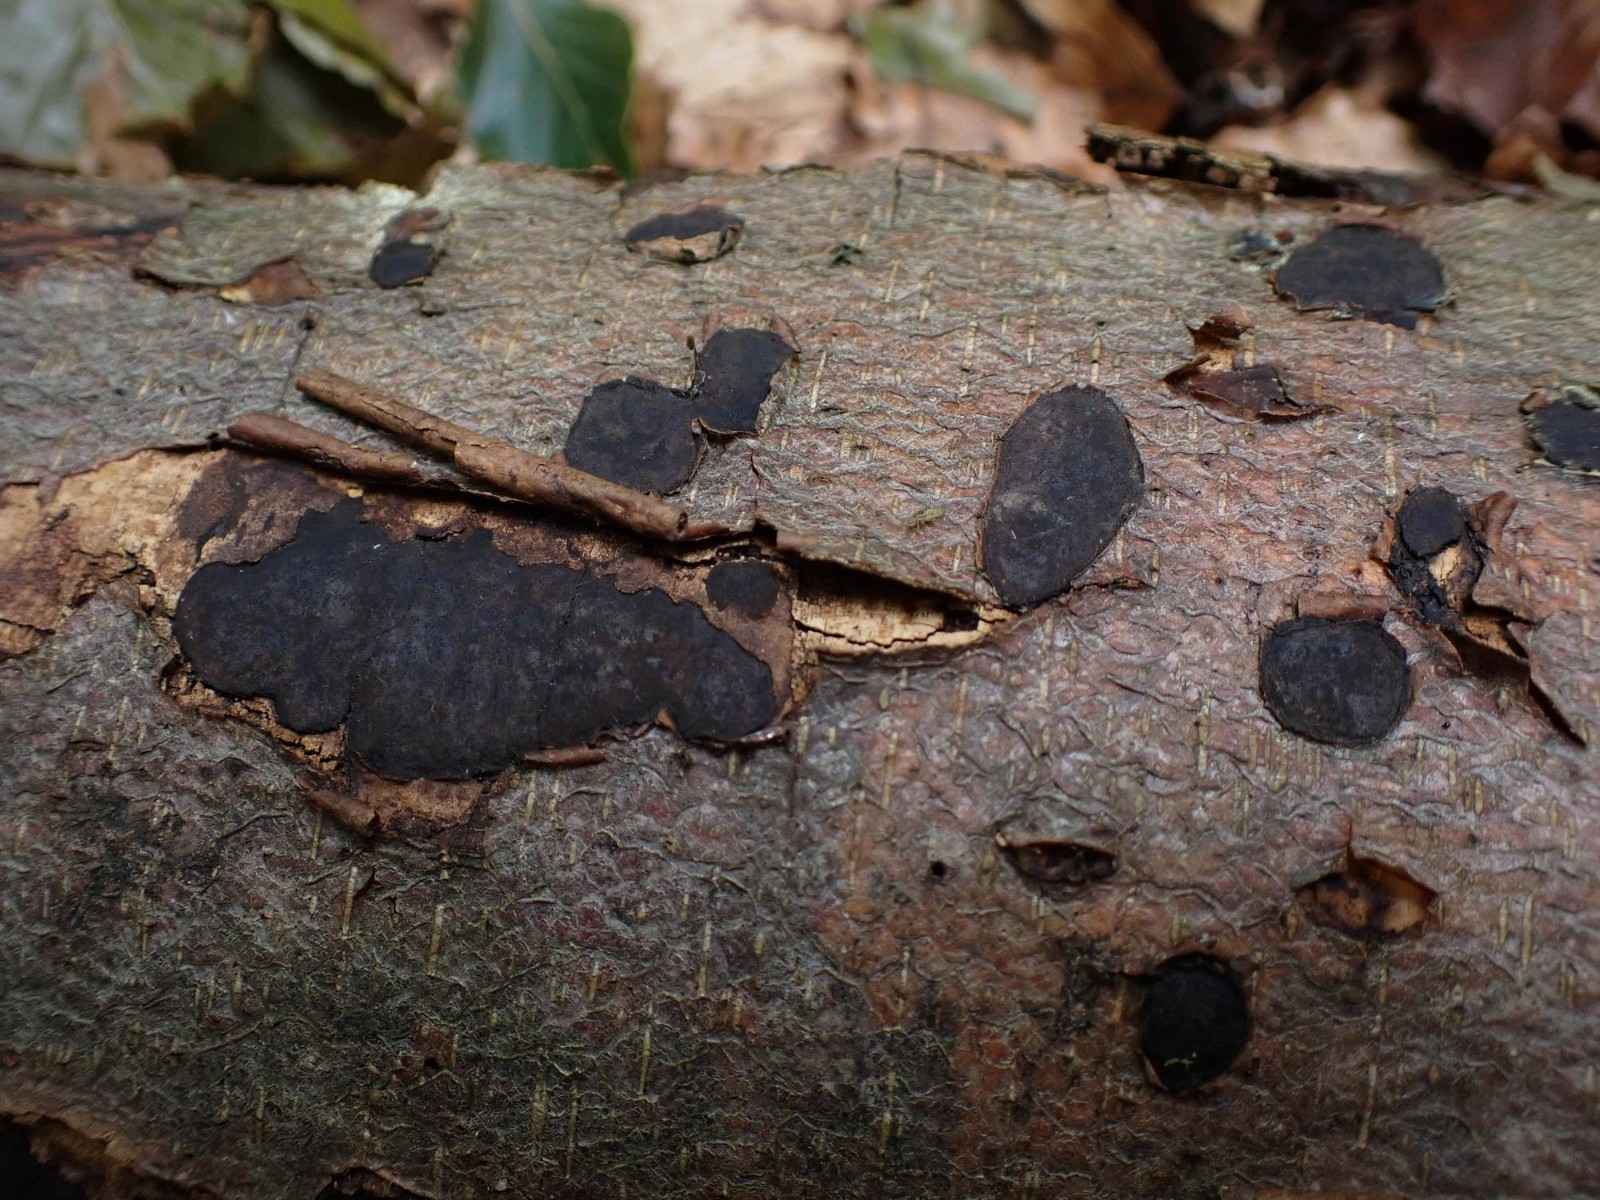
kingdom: Fungi
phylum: Ascomycota
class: Sordariomycetes
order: Xylariales
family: Graphostromataceae
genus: Biscogniauxia
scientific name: Biscogniauxia nummularia
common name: bøge-kulskive
